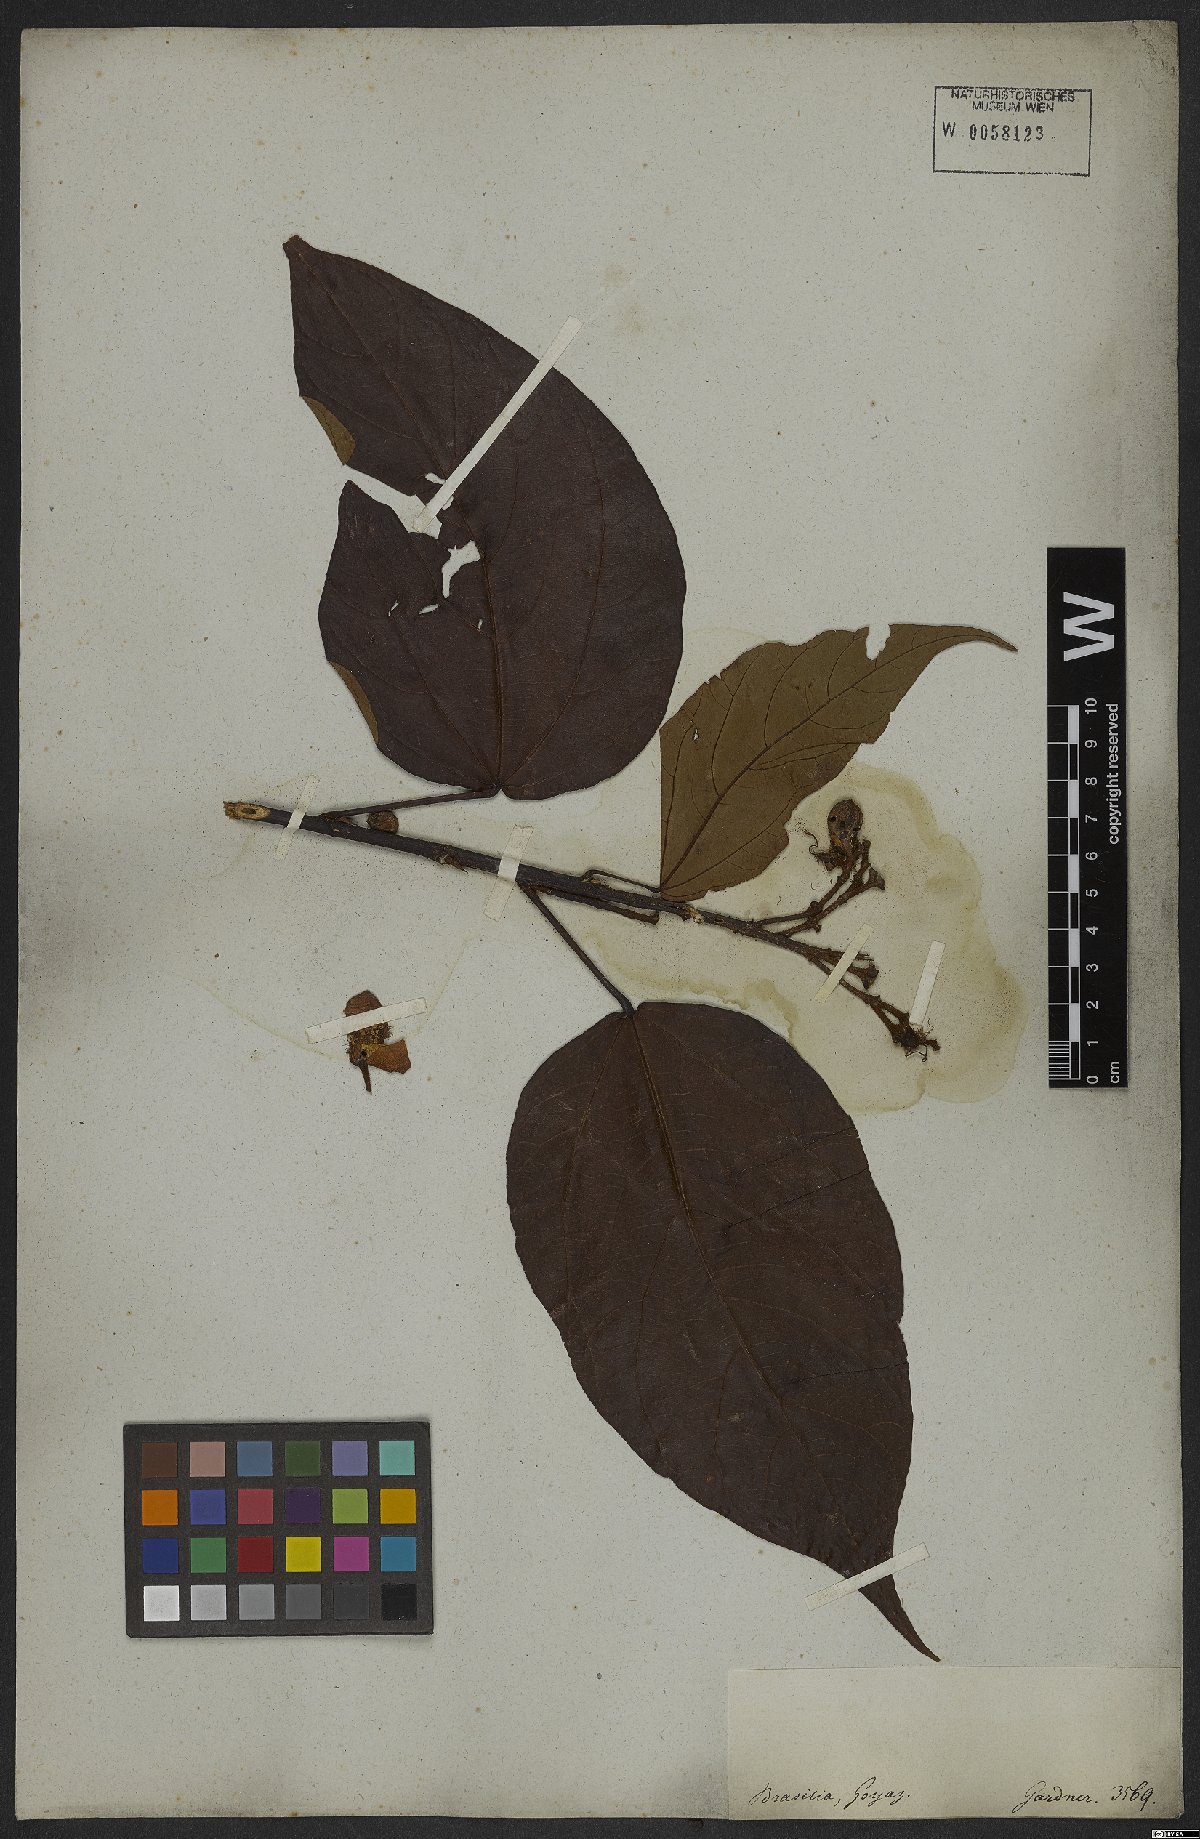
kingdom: Plantae
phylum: Tracheophyta
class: Magnoliopsida
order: Malvales
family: Bixaceae
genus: Bixa
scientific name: Bixa orellana
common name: Lipsticktree
